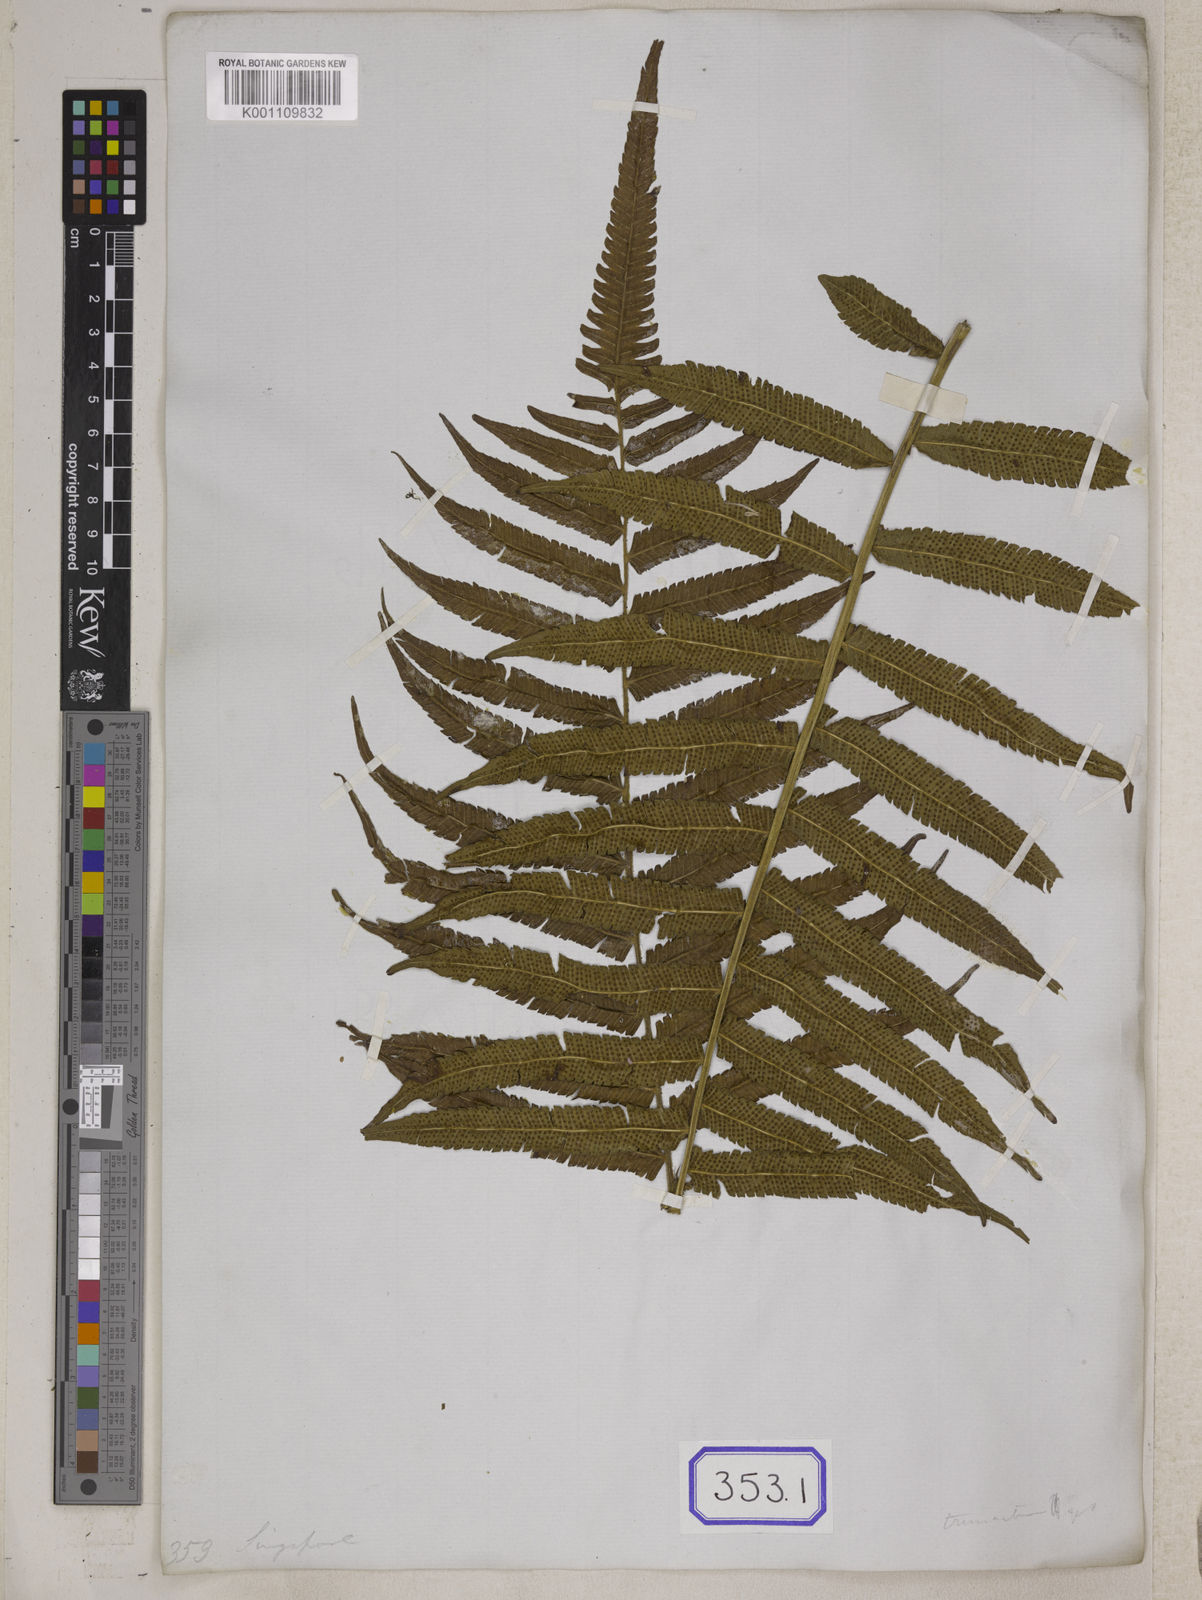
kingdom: Plantae
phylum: Tracheophyta
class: Polypodiopsida
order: Polypodiales
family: Thelypteridaceae
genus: Reholttumia
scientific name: Reholttumia truncata
